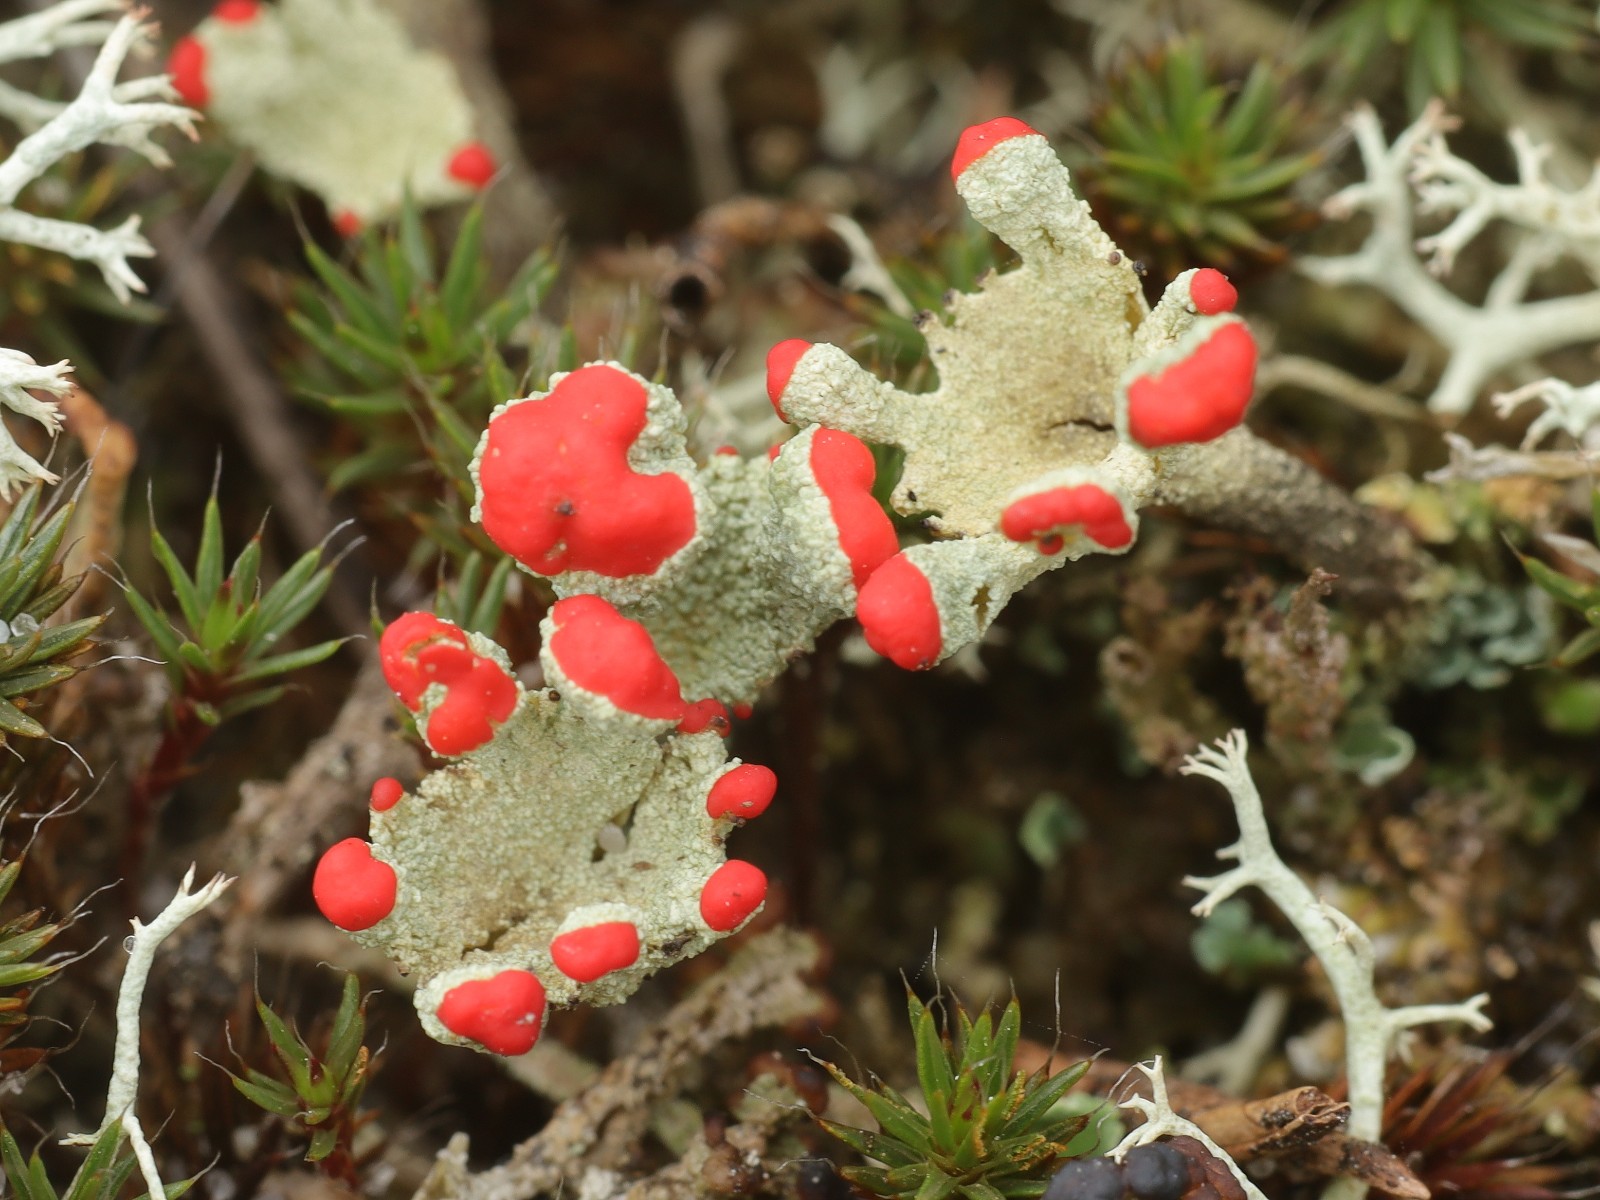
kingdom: Fungi
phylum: Ascomycota
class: Lecanoromycetes
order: Lecanorales
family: Cladoniaceae
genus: Cladonia
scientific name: Cladonia diversa
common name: rød bægerlav
